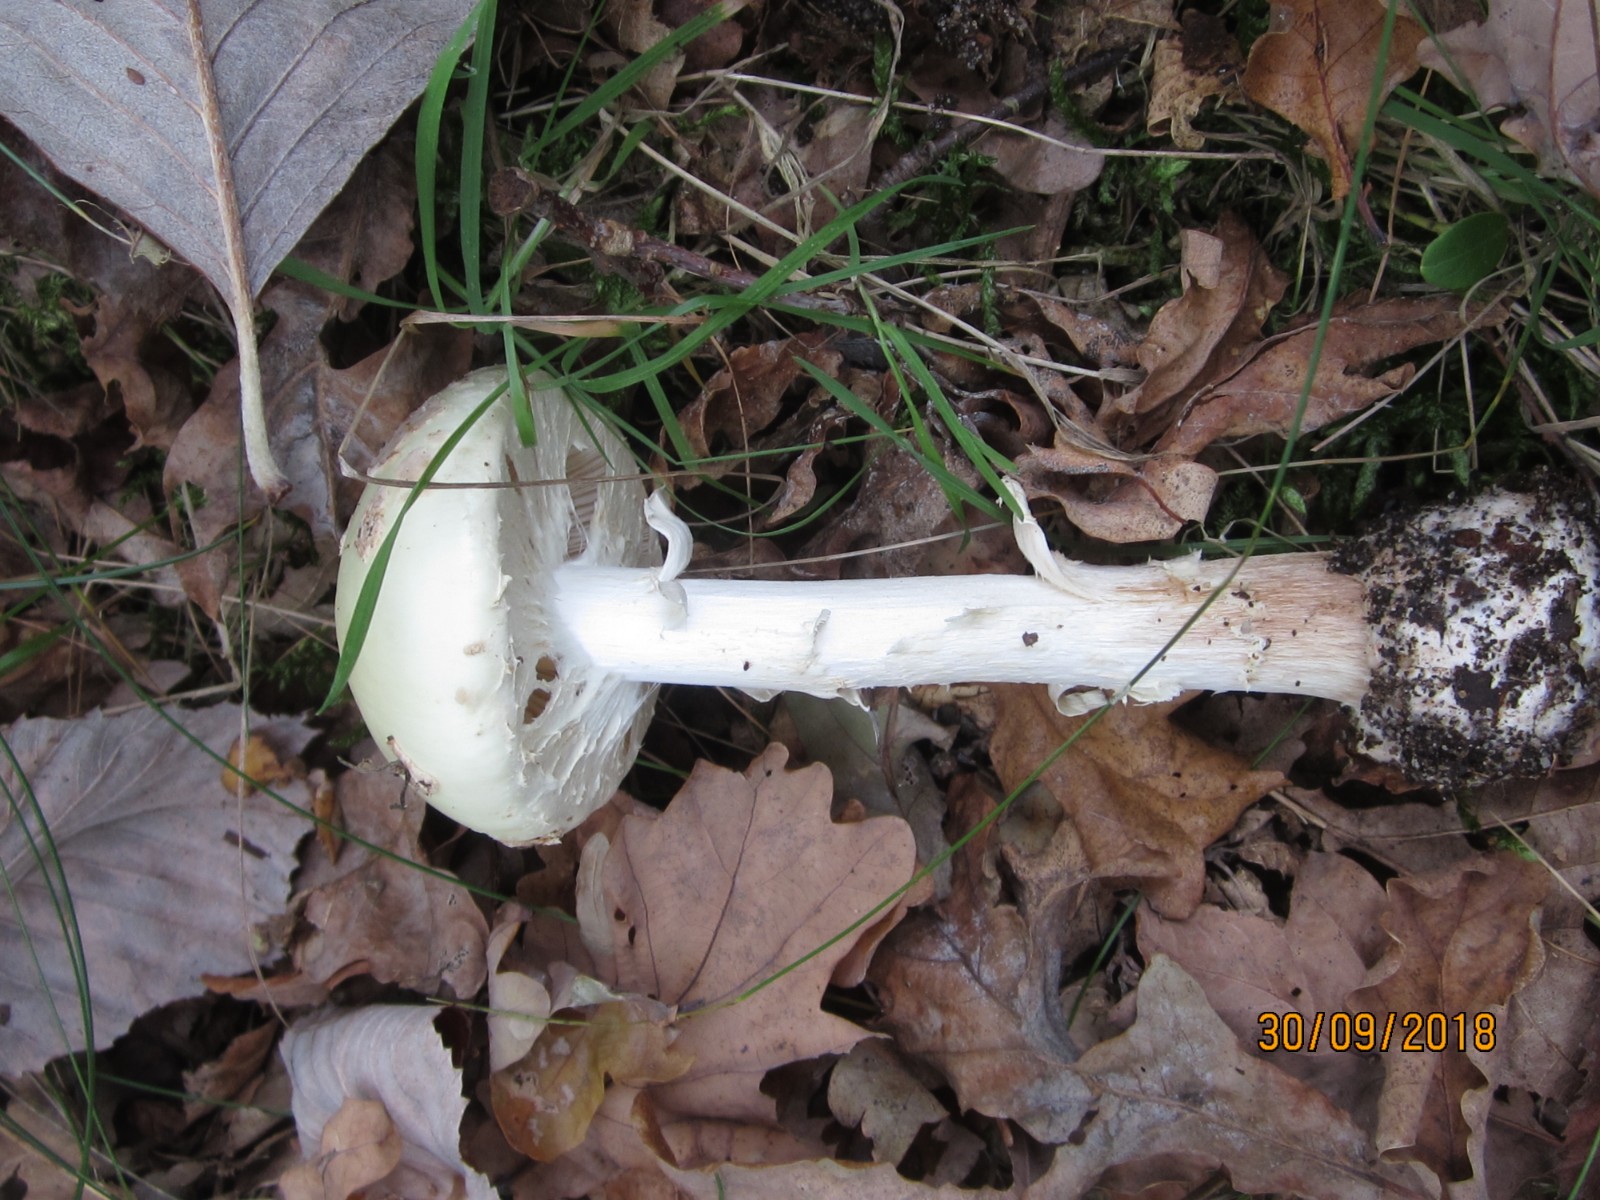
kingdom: Fungi
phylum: Basidiomycota
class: Agaricomycetes
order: Agaricales
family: Amanitaceae
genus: Amanita
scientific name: Amanita citrina
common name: False death-cap
